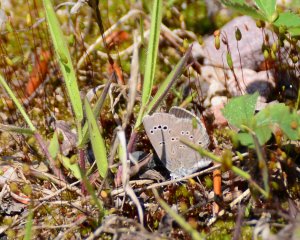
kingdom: Animalia
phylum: Arthropoda
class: Insecta
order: Lepidoptera
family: Lycaenidae
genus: Glaucopsyche
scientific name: Glaucopsyche lygdamus
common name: Silvery Blue
